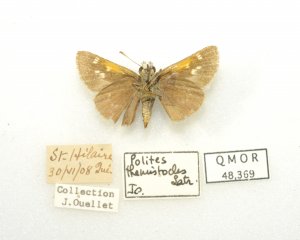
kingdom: Animalia
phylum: Arthropoda
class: Insecta
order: Lepidoptera
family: Hesperiidae
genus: Polites
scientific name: Polites themistocles
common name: Tawny-edged Skipper
